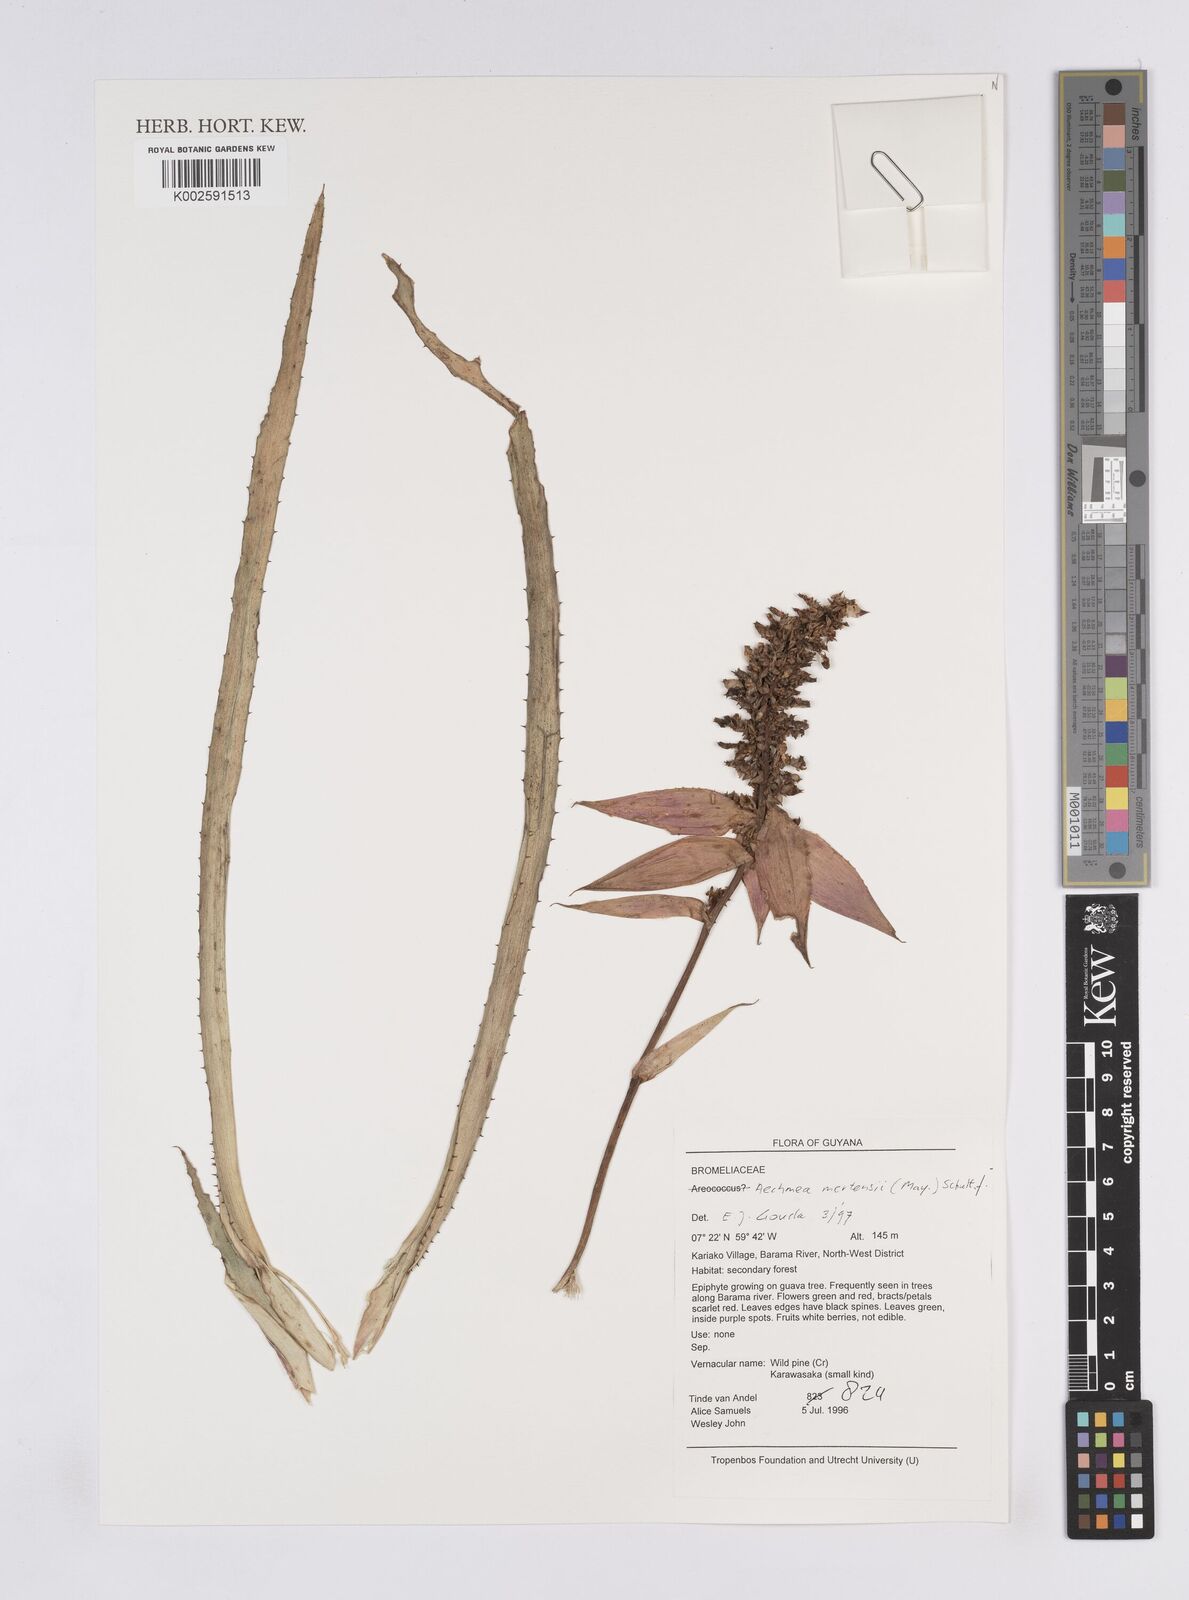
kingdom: Plantae
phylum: Tracheophyta
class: Liliopsida
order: Poales
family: Bromeliaceae
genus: Aechmea
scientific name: Aechmea mertensii
